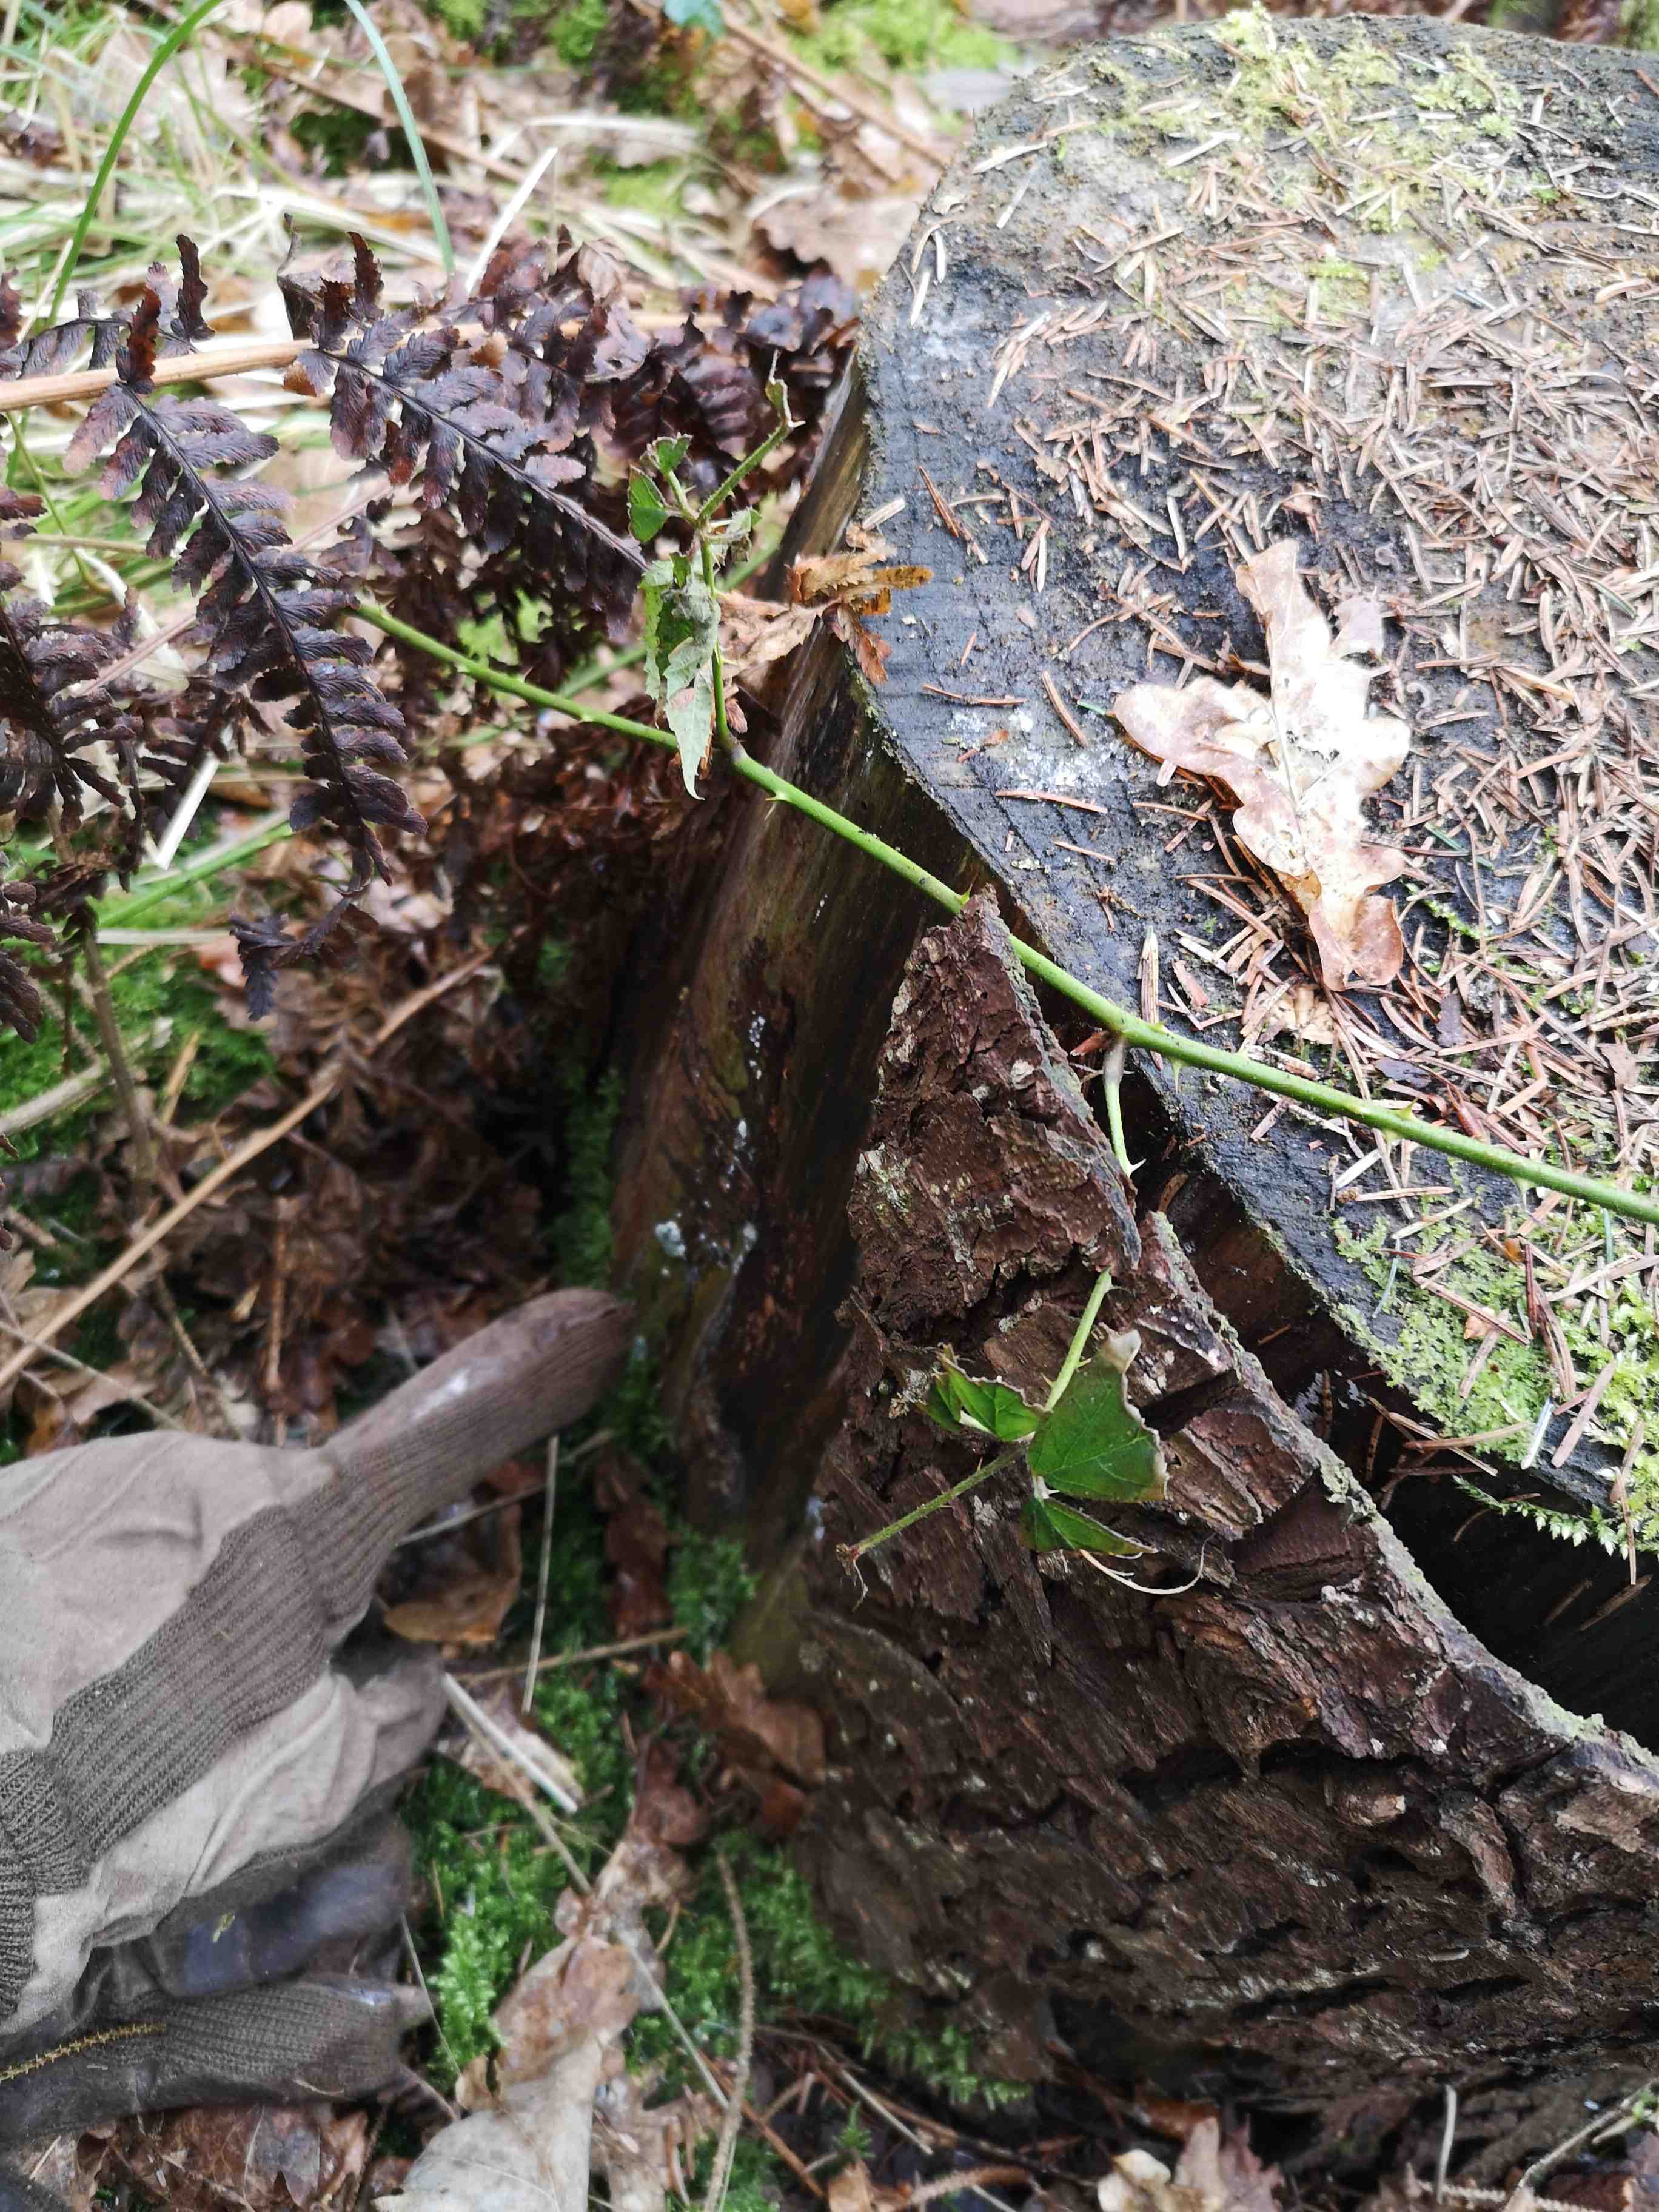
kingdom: Fungi
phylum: Ascomycota
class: Sordariomycetes
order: Hypocreales
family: Hypocreaceae
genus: Trichoderma
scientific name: Trichoderma
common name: kødkerne
